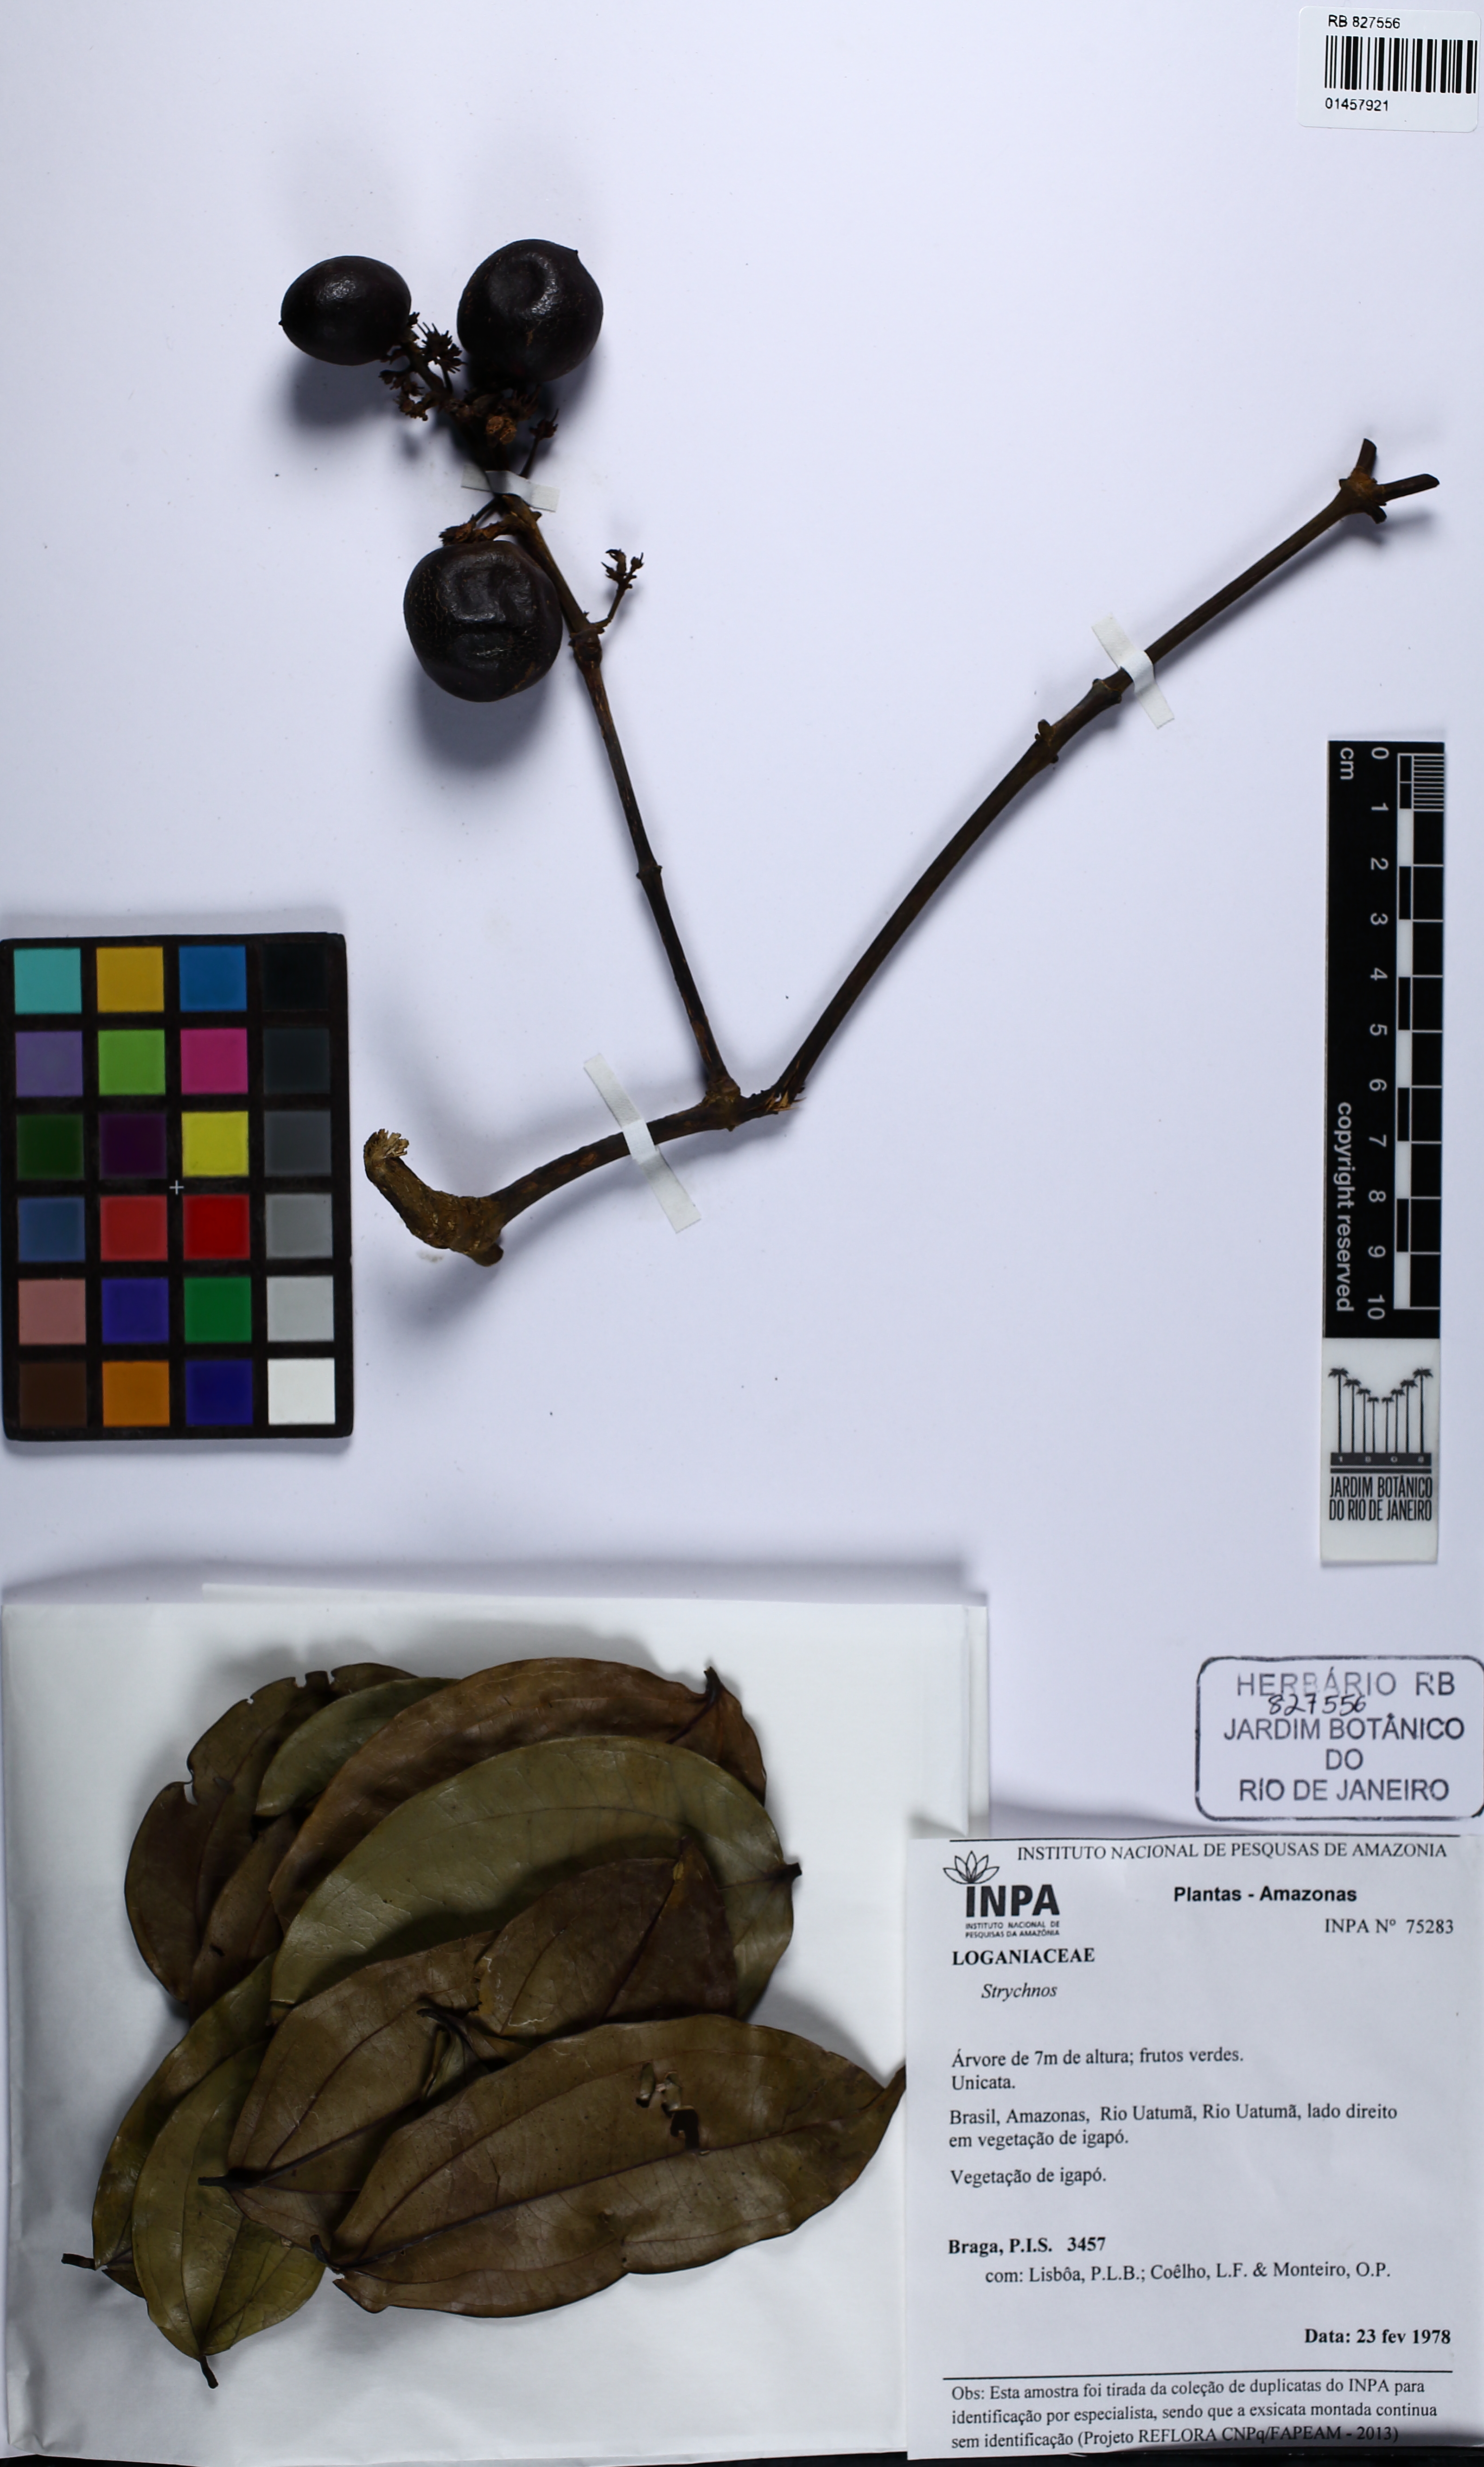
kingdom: Plantae
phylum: Tracheophyta
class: Magnoliopsida
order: Gentianales
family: Loganiaceae
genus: Strychnos
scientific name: Strychnos
